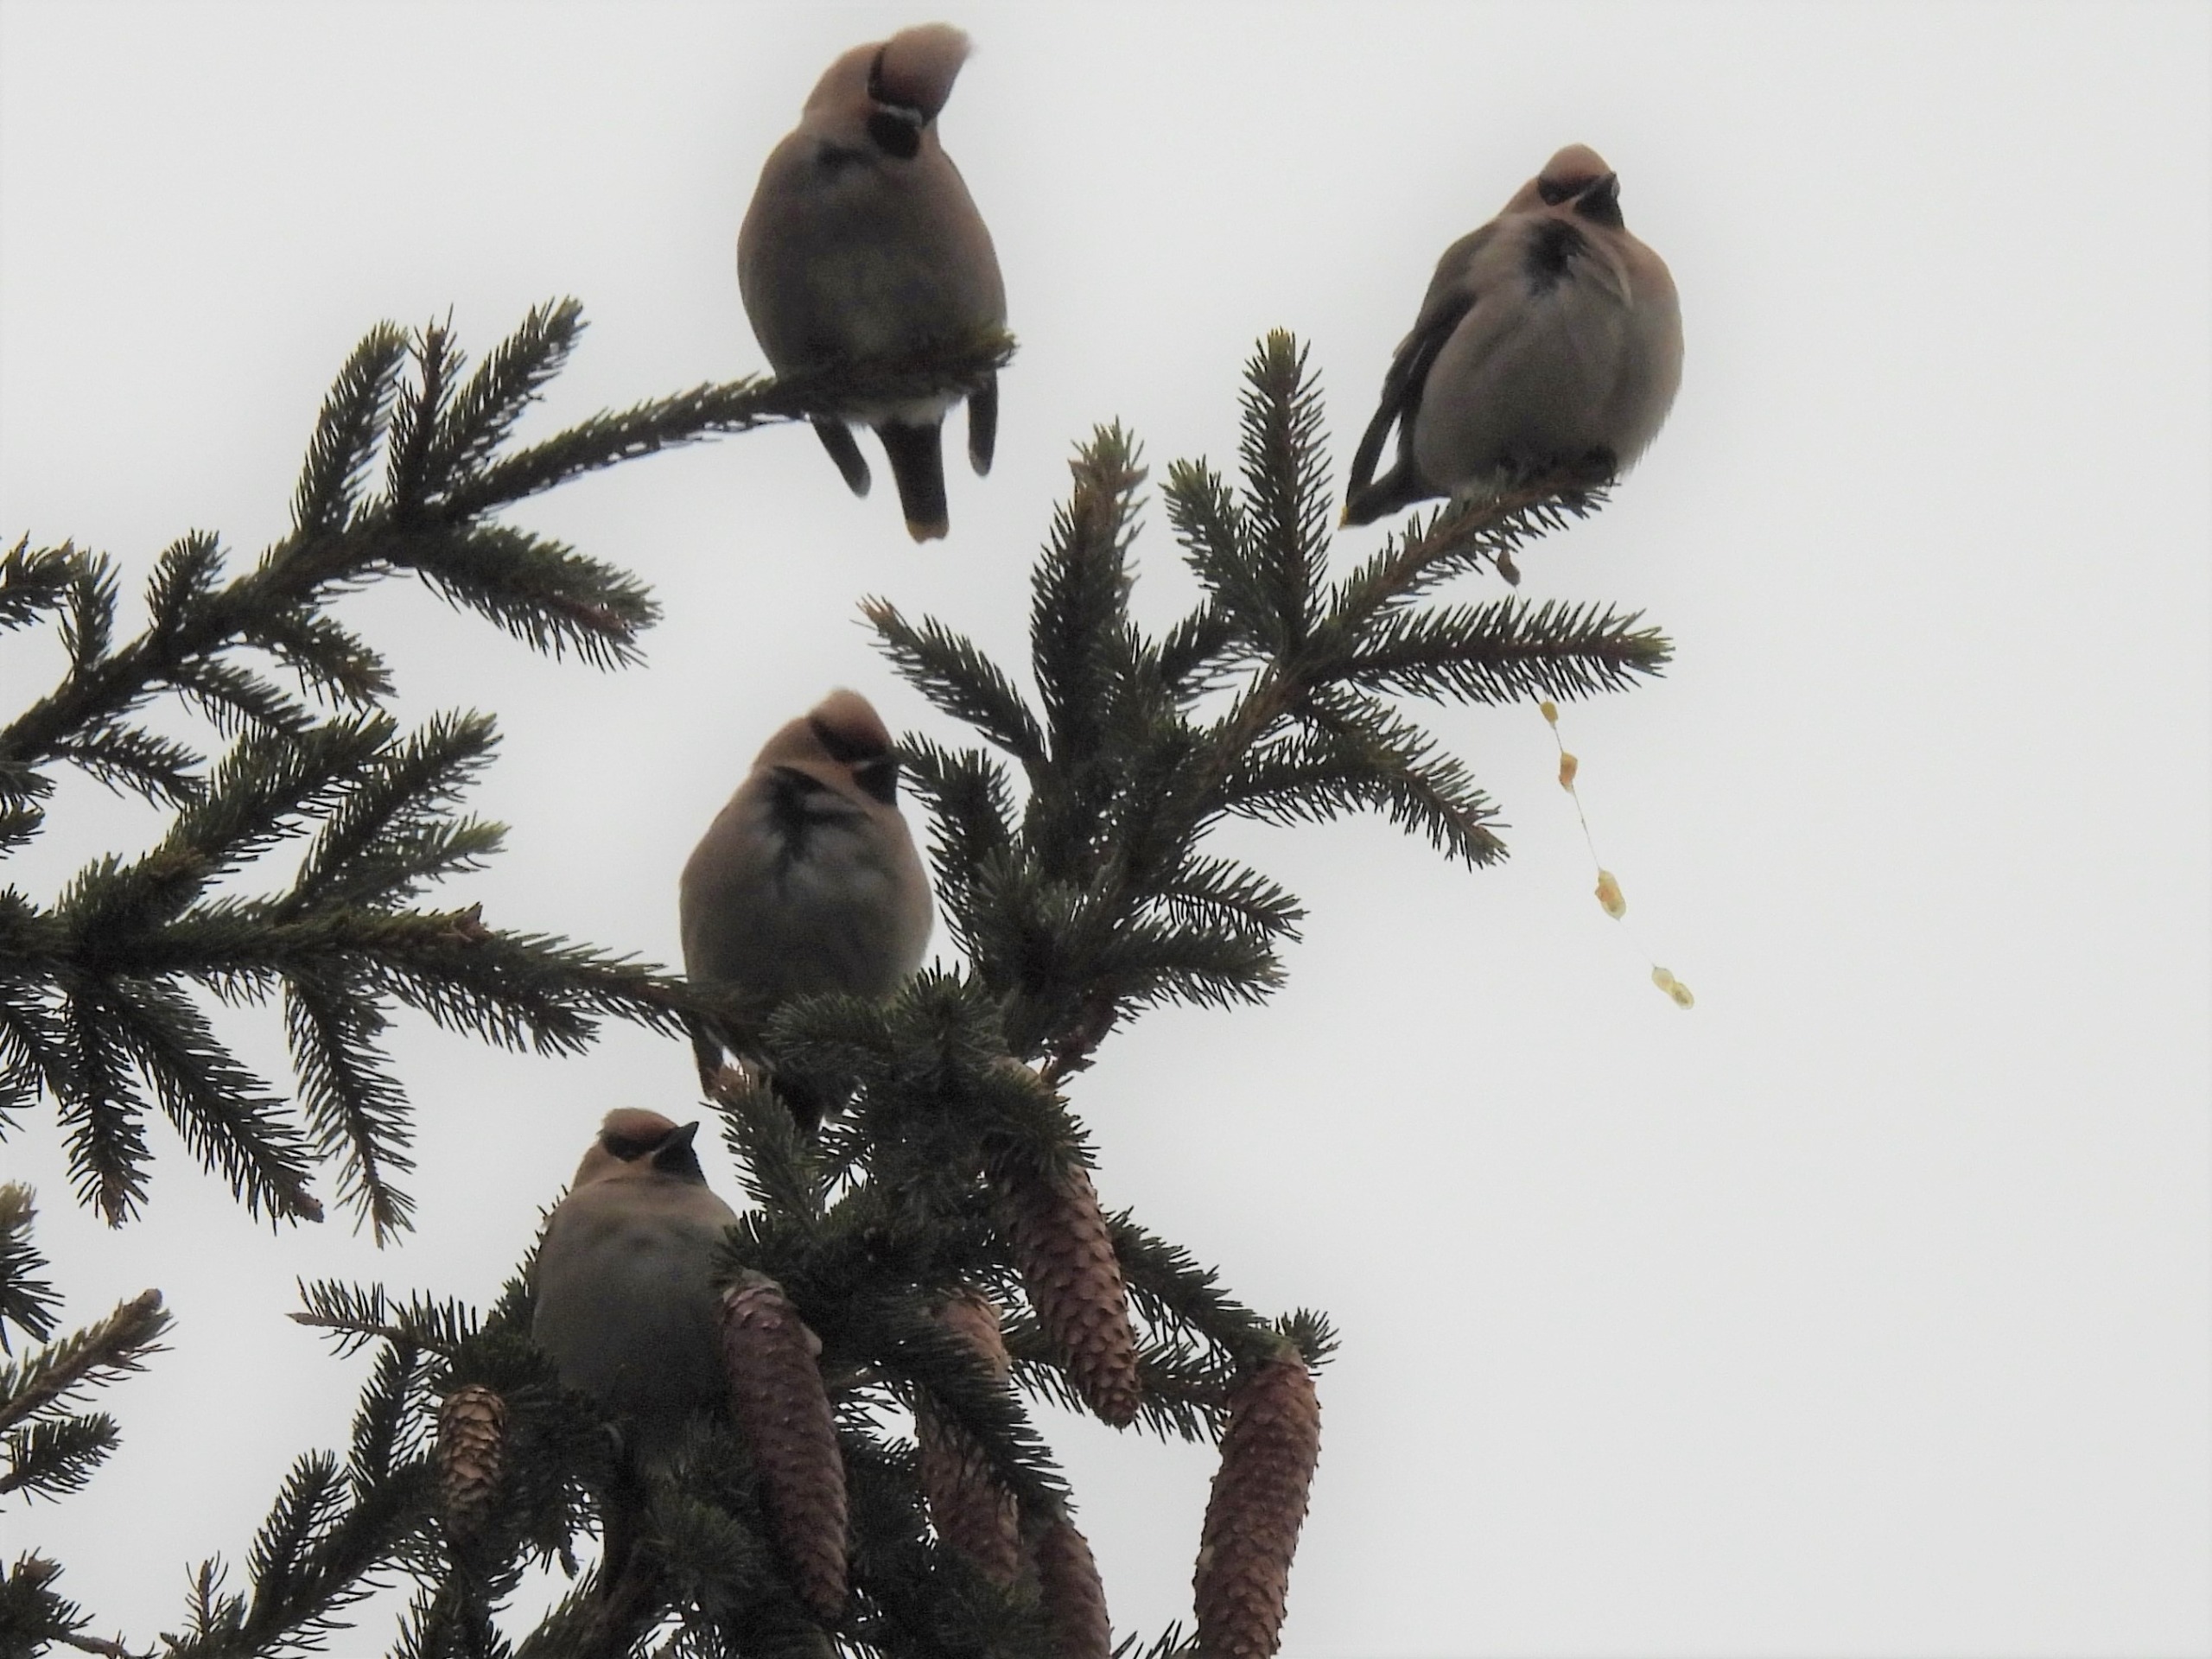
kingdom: Animalia
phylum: Chordata
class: Aves
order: Passeriformes
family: Bombycillidae
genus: Bombycilla
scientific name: Bombycilla garrulus
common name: Silkehale
